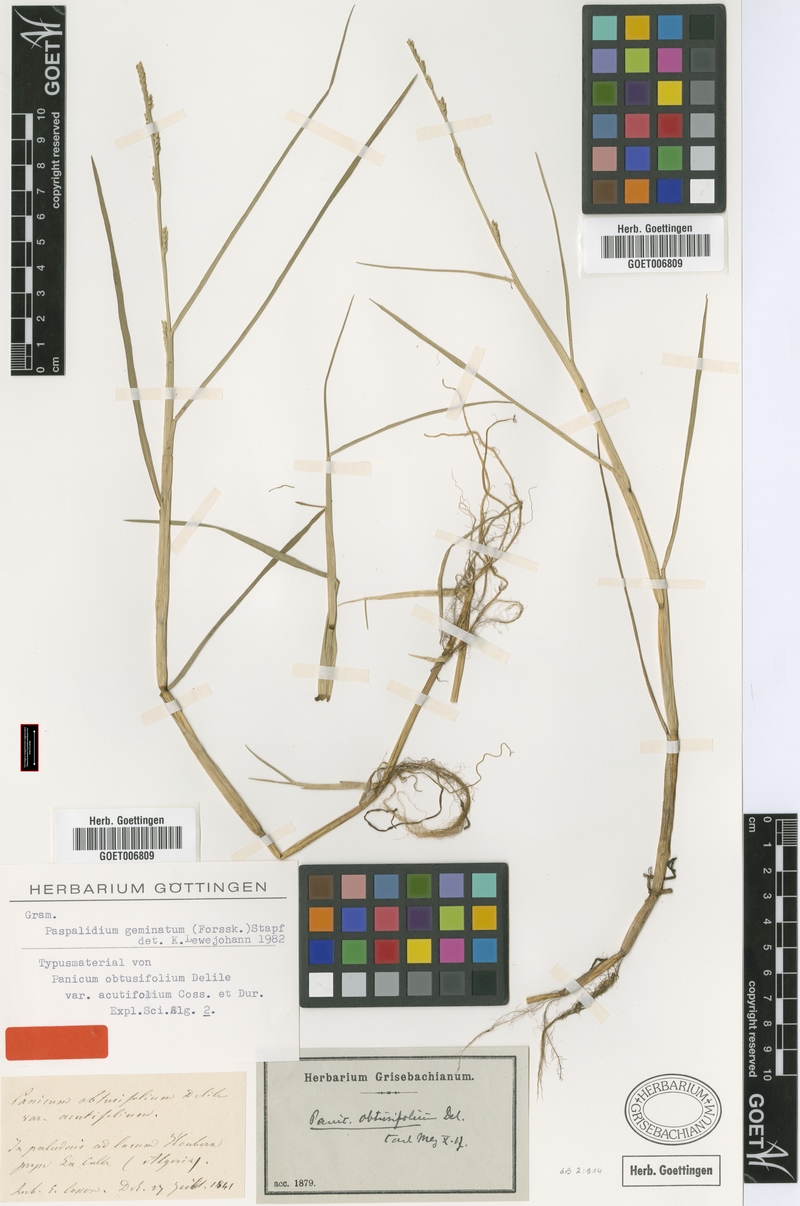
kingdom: Plantae
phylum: Tracheophyta
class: Liliopsida
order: Poales
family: Poaceae
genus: Setaria
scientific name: Setaria geminata
